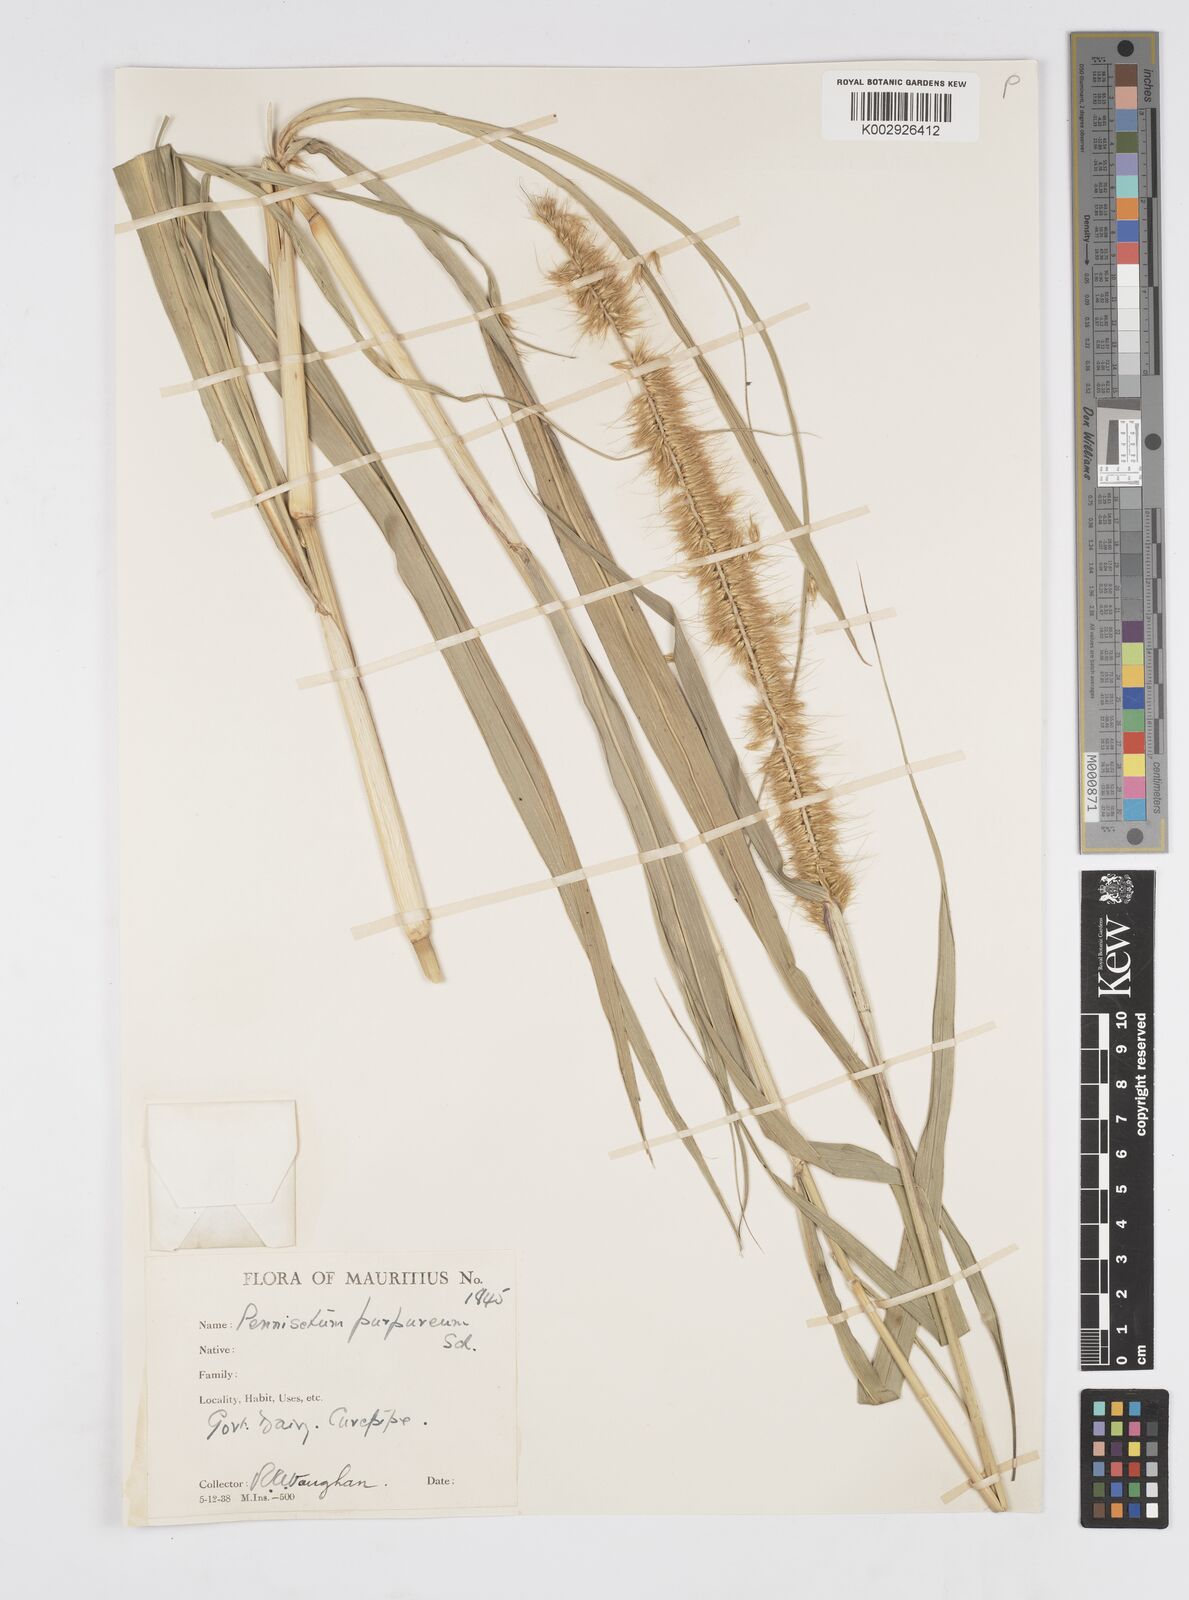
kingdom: Plantae
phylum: Tracheophyta
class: Liliopsida
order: Poales
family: Poaceae
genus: Cenchrus
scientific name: Cenchrus purpureus
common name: Elephant grass
